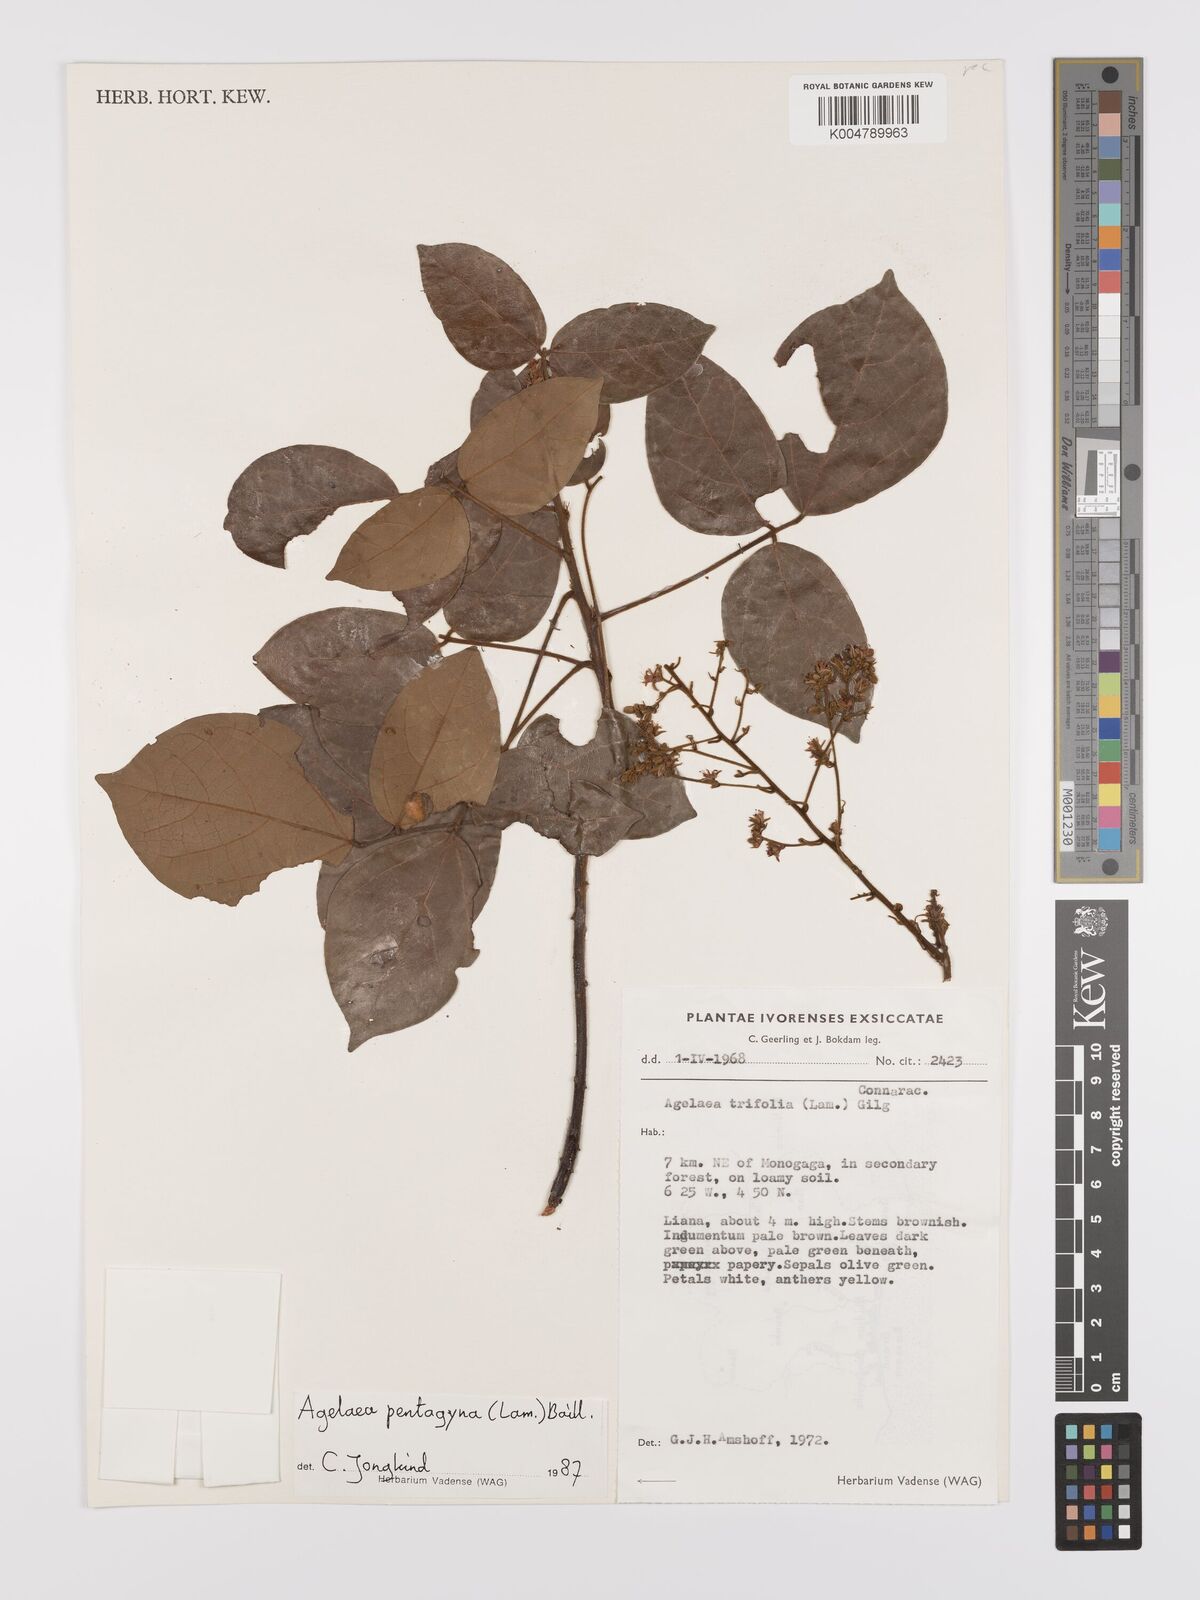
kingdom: Plantae
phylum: Tracheophyta
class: Magnoliopsida
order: Oxalidales
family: Connaraceae
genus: Agelaea
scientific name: Agelaea pentagyna
